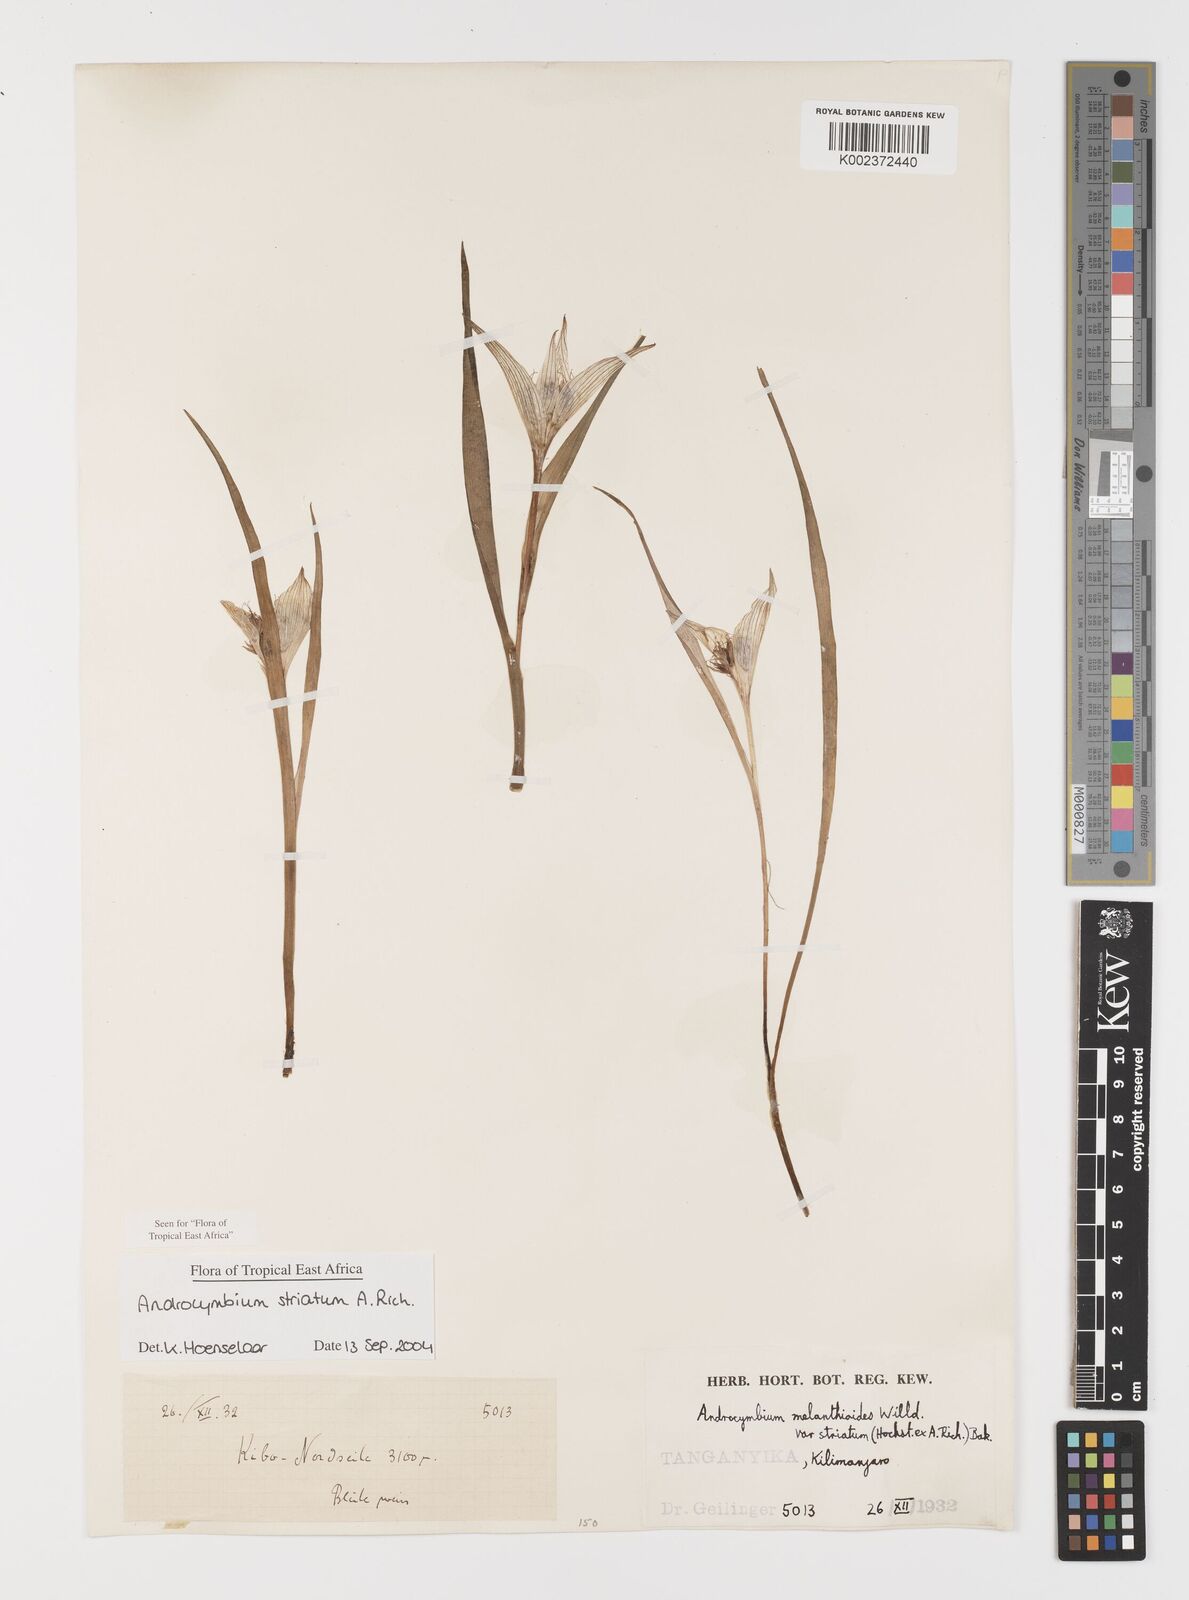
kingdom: Plantae
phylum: Tracheophyta
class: Liliopsida
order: Liliales
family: Colchicaceae
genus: Colchicum
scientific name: Colchicum striatum
